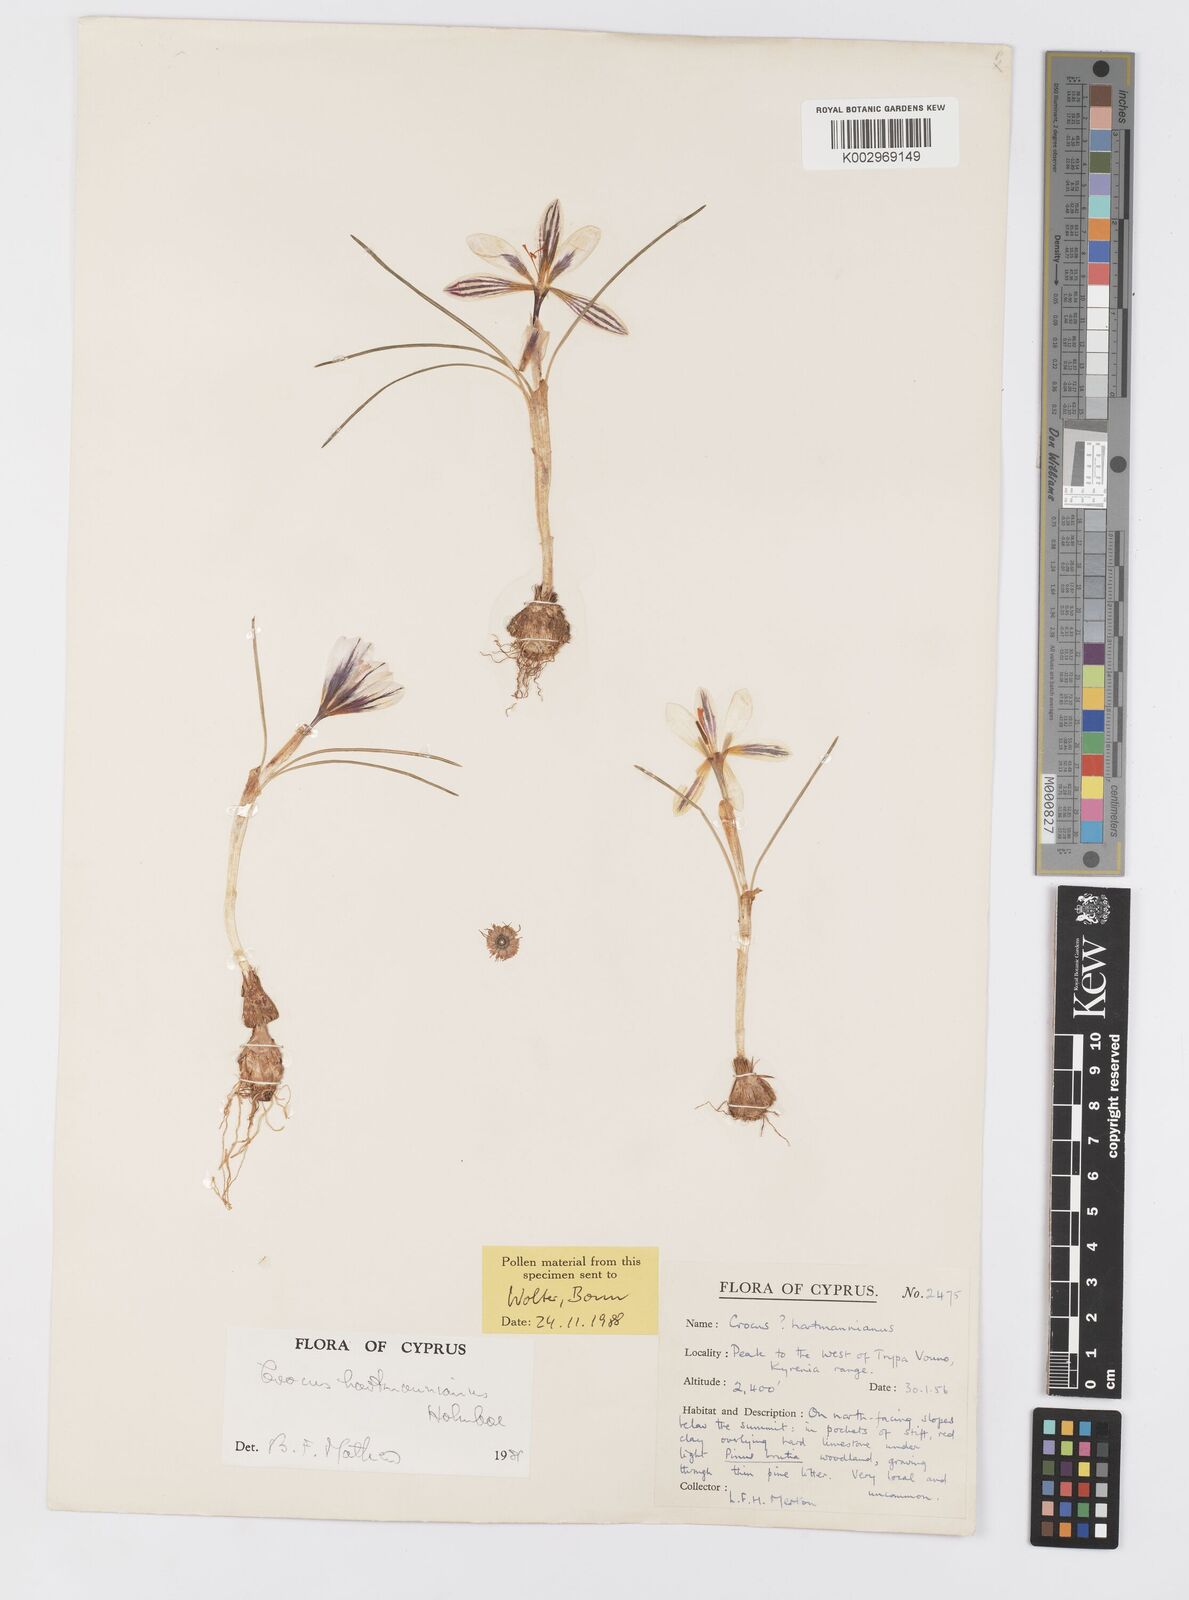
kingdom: Plantae
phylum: Tracheophyta
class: Liliopsida
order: Asparagales
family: Iridaceae
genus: Crocus
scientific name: Crocus hartmannianus
